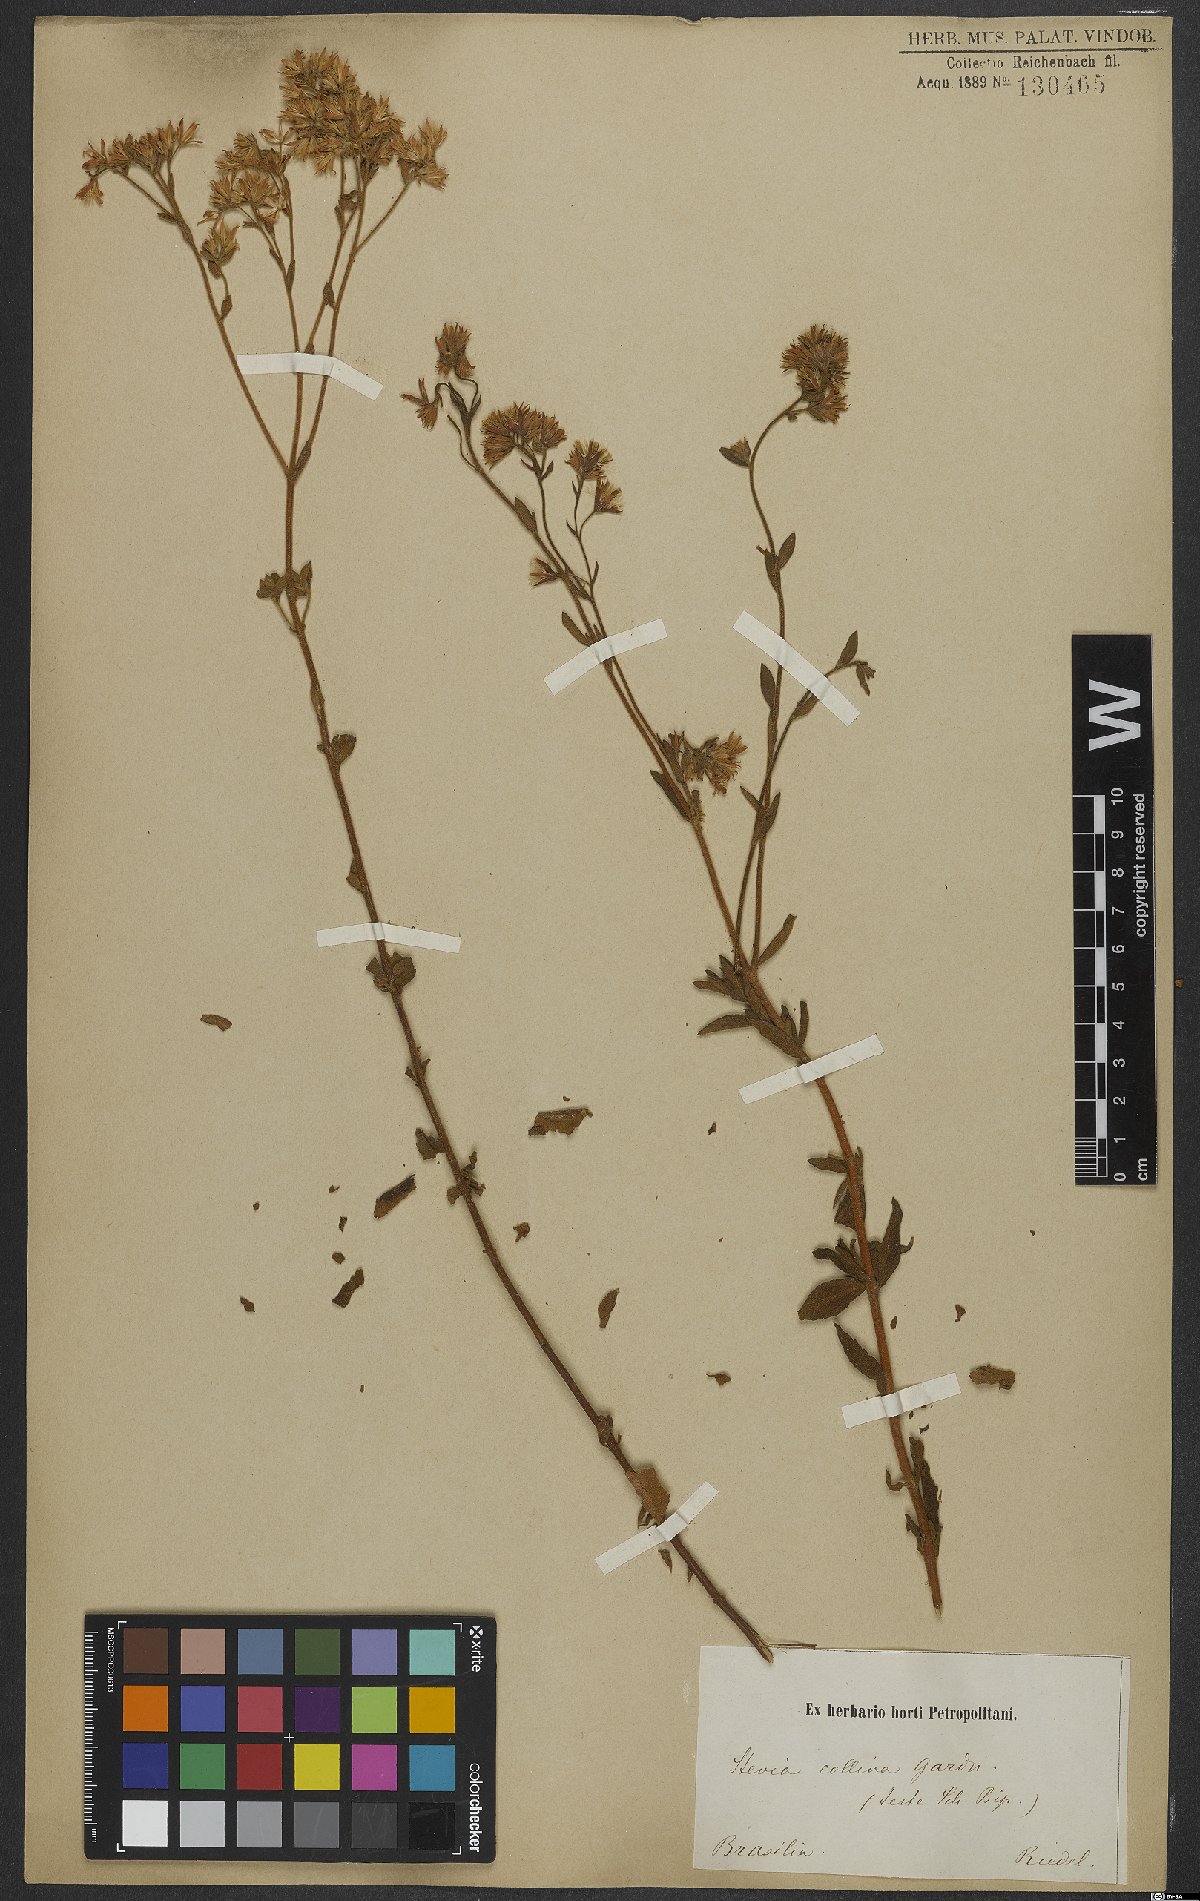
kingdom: Plantae
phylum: Tracheophyta
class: Magnoliopsida
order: Asterales
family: Asteraceae
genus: Stevia
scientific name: Stevia collina
